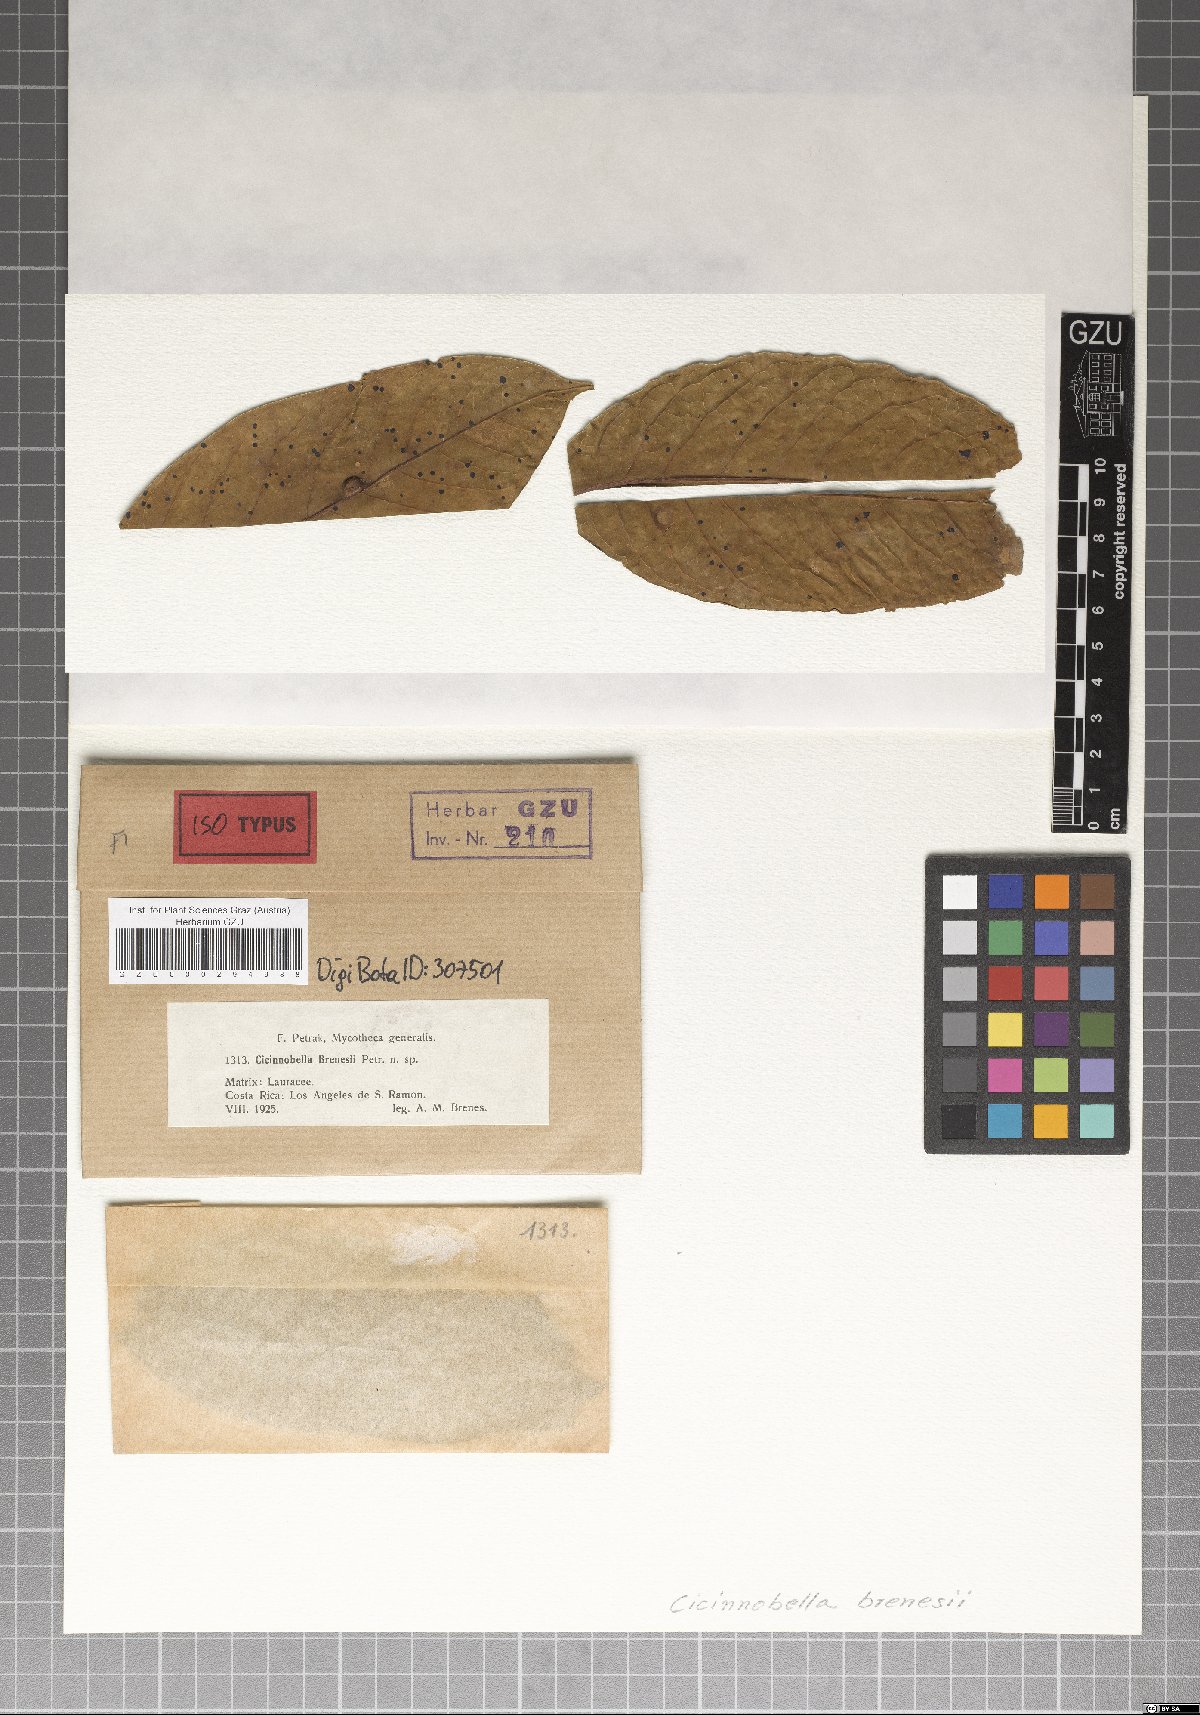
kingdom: Fungi
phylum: Ascomycota
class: Dothideomycetes
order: Dothideales
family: Parodiopsidaceae
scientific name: Parodiopsidaceae
